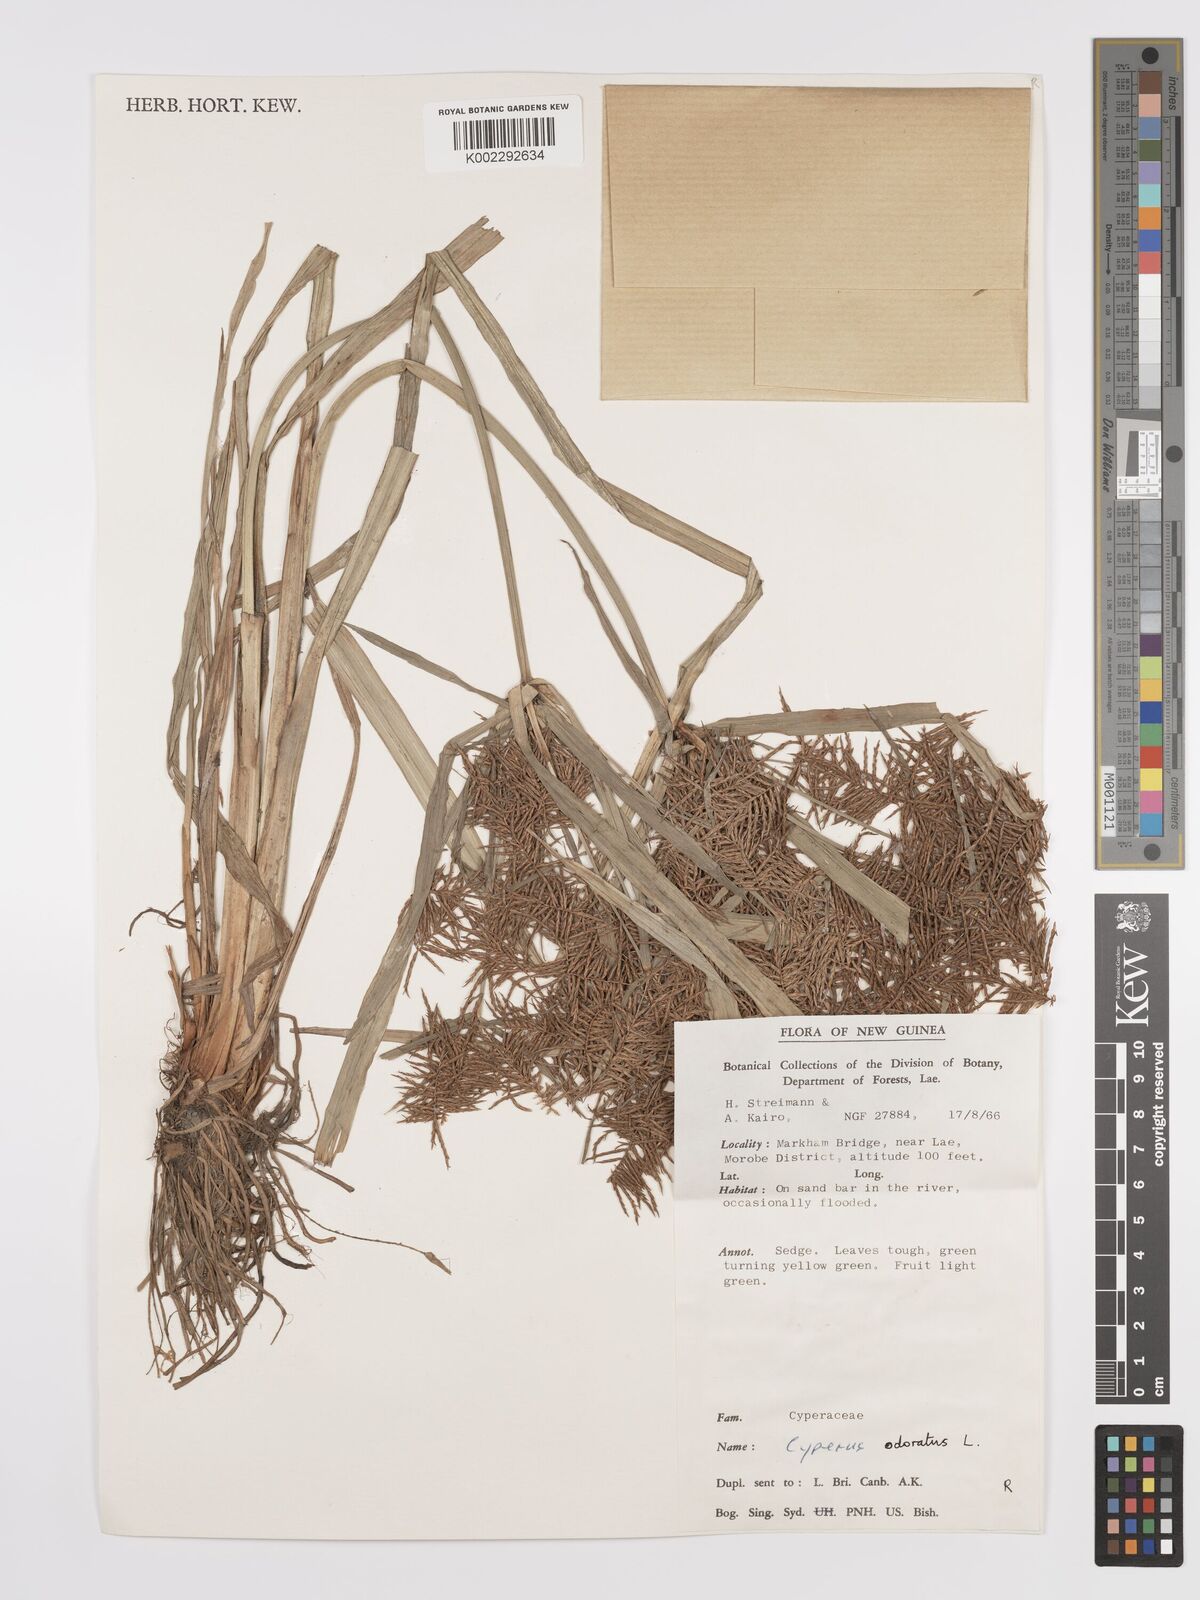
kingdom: Plantae
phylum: Tracheophyta
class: Liliopsida
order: Poales
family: Cyperaceae
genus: Cyperus
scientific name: Cyperus odoratus
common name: Fragrant flatsedge
